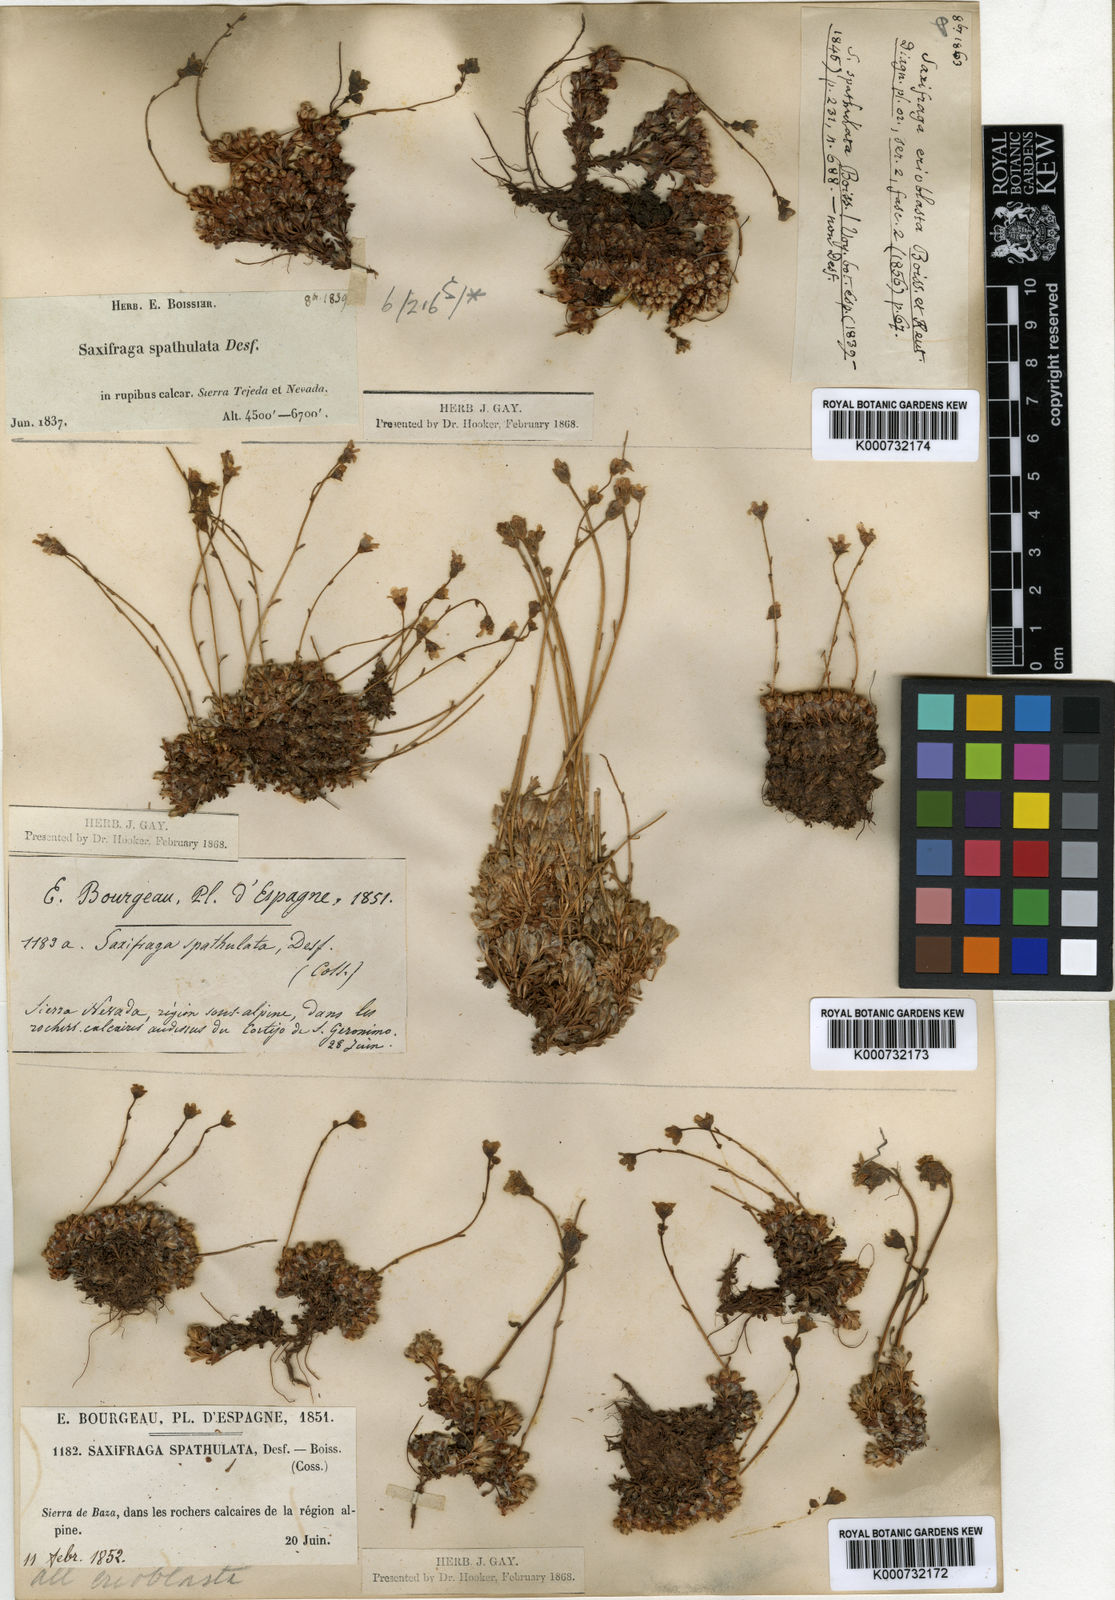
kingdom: Plantae
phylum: Tracheophyta
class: Magnoliopsida
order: Saxifragales
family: Saxifragaceae
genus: Saxifraga
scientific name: Saxifraga erioblasta
